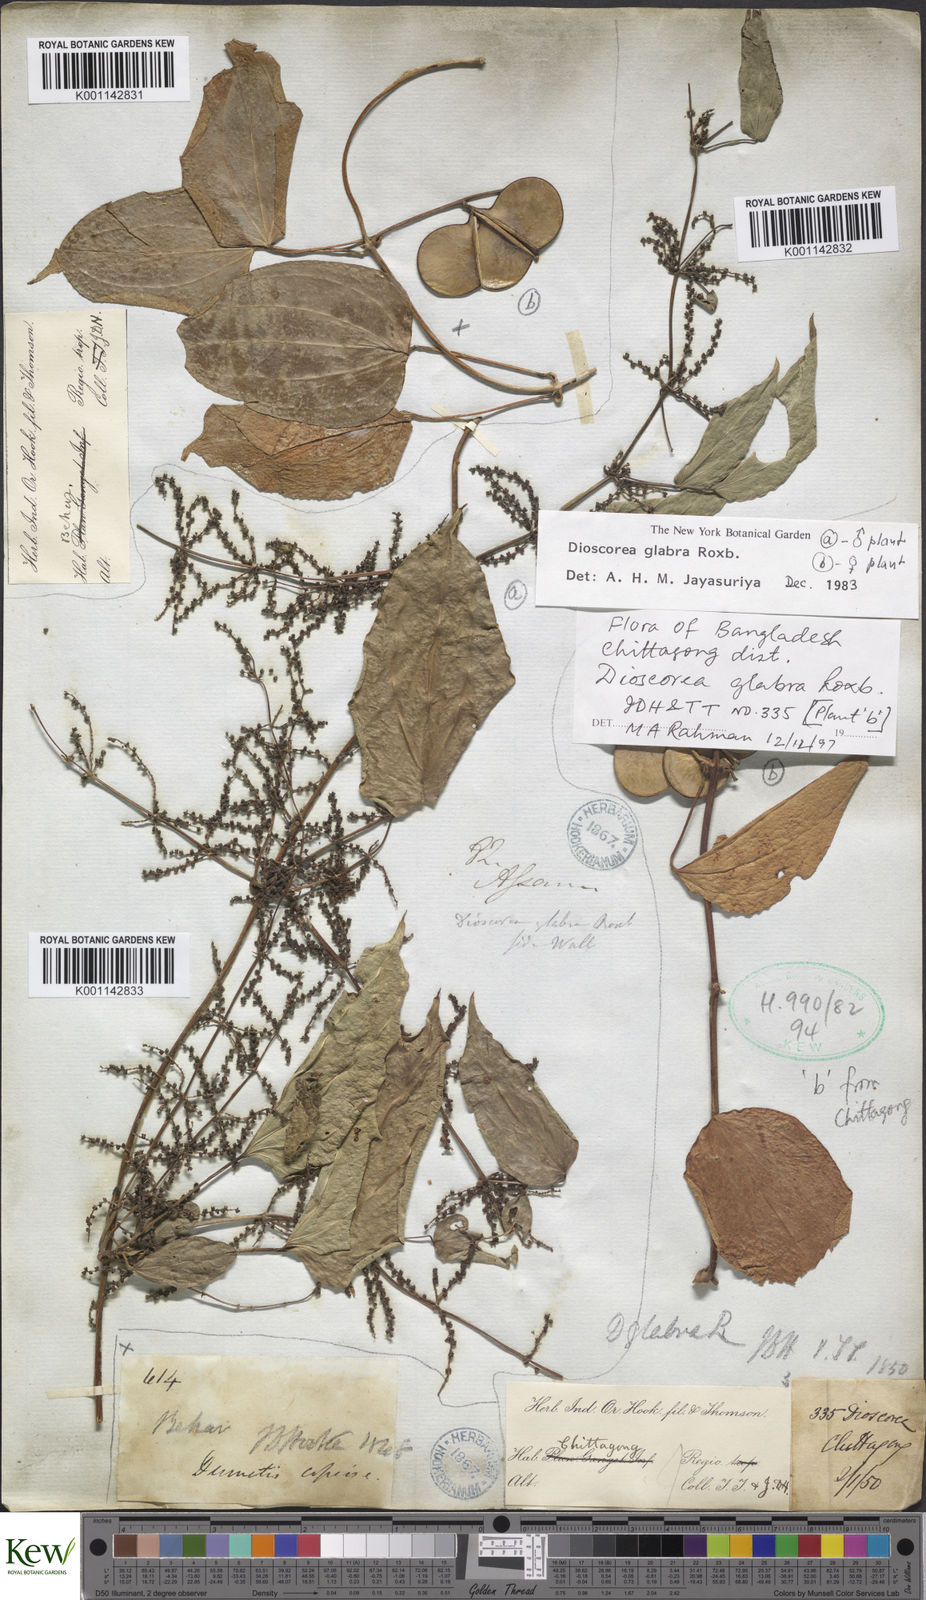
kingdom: Plantae
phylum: Tracheophyta
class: Liliopsida
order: Dioscoreales
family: Dioscoreaceae
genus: Dioscorea
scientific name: Dioscorea glabra
